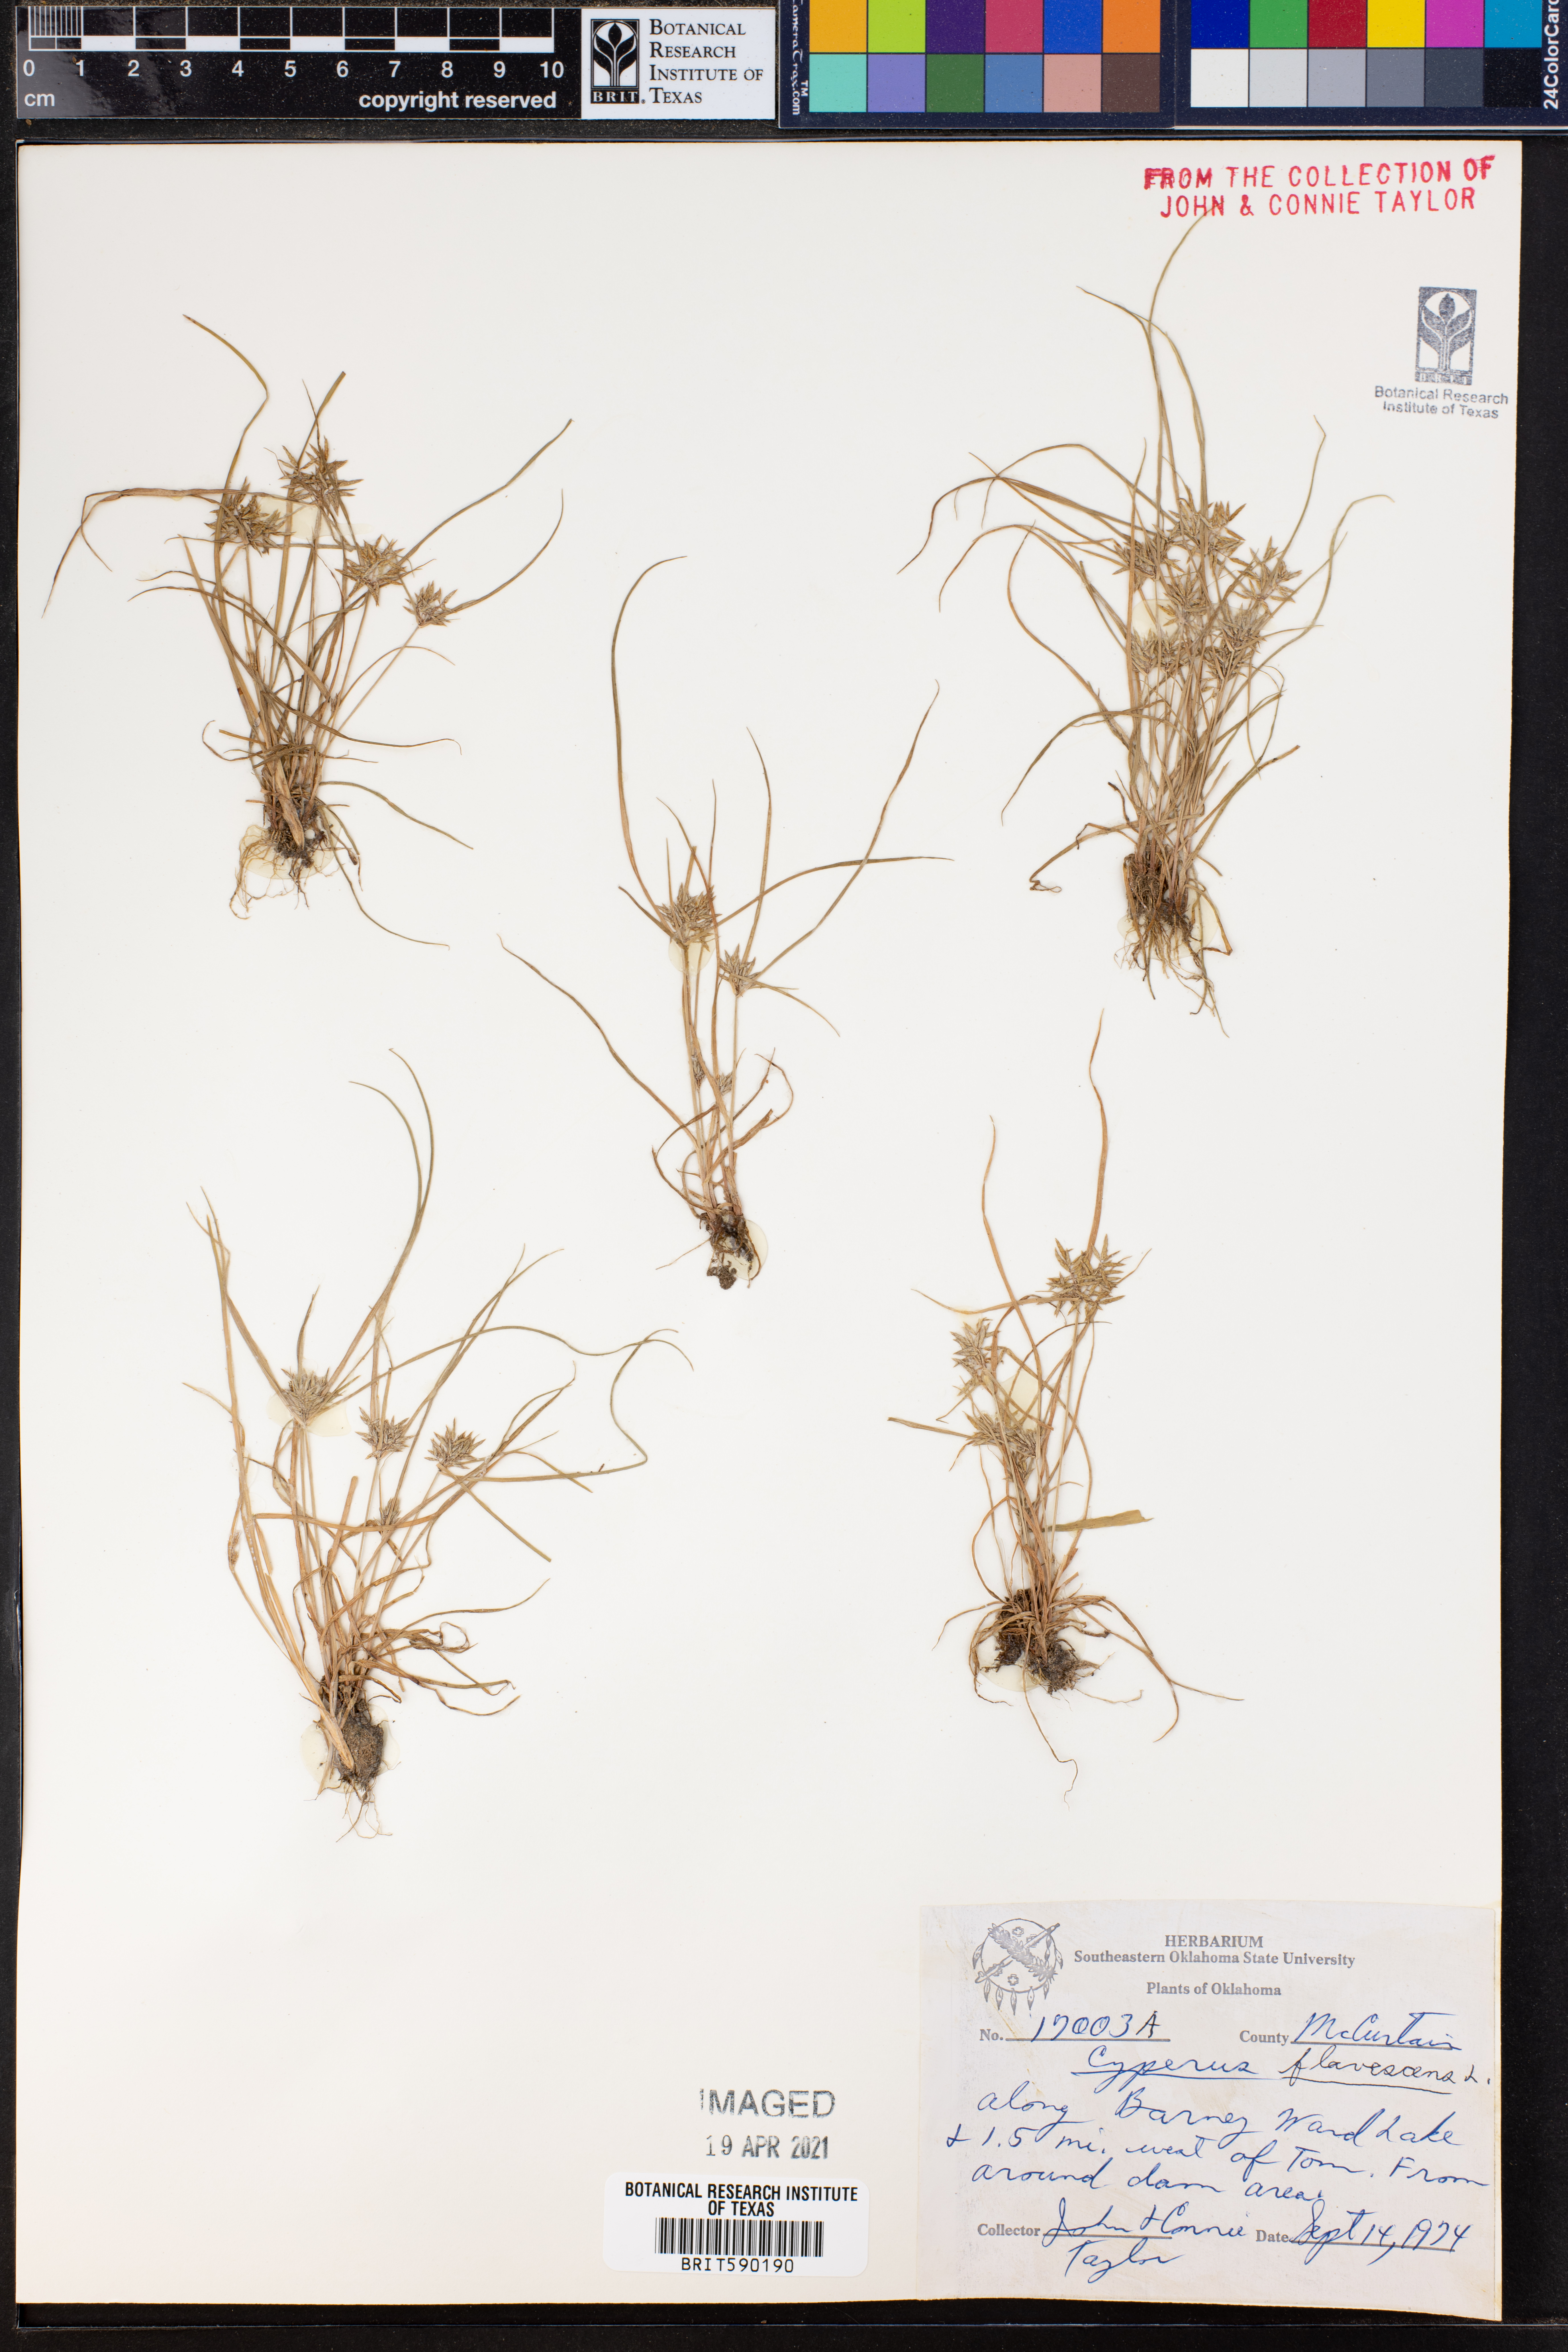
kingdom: Plantae
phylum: Tracheophyta
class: Liliopsida
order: Poales
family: Cyperaceae
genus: Cyperus
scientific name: Cyperus flavescens
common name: Yellow galingale
